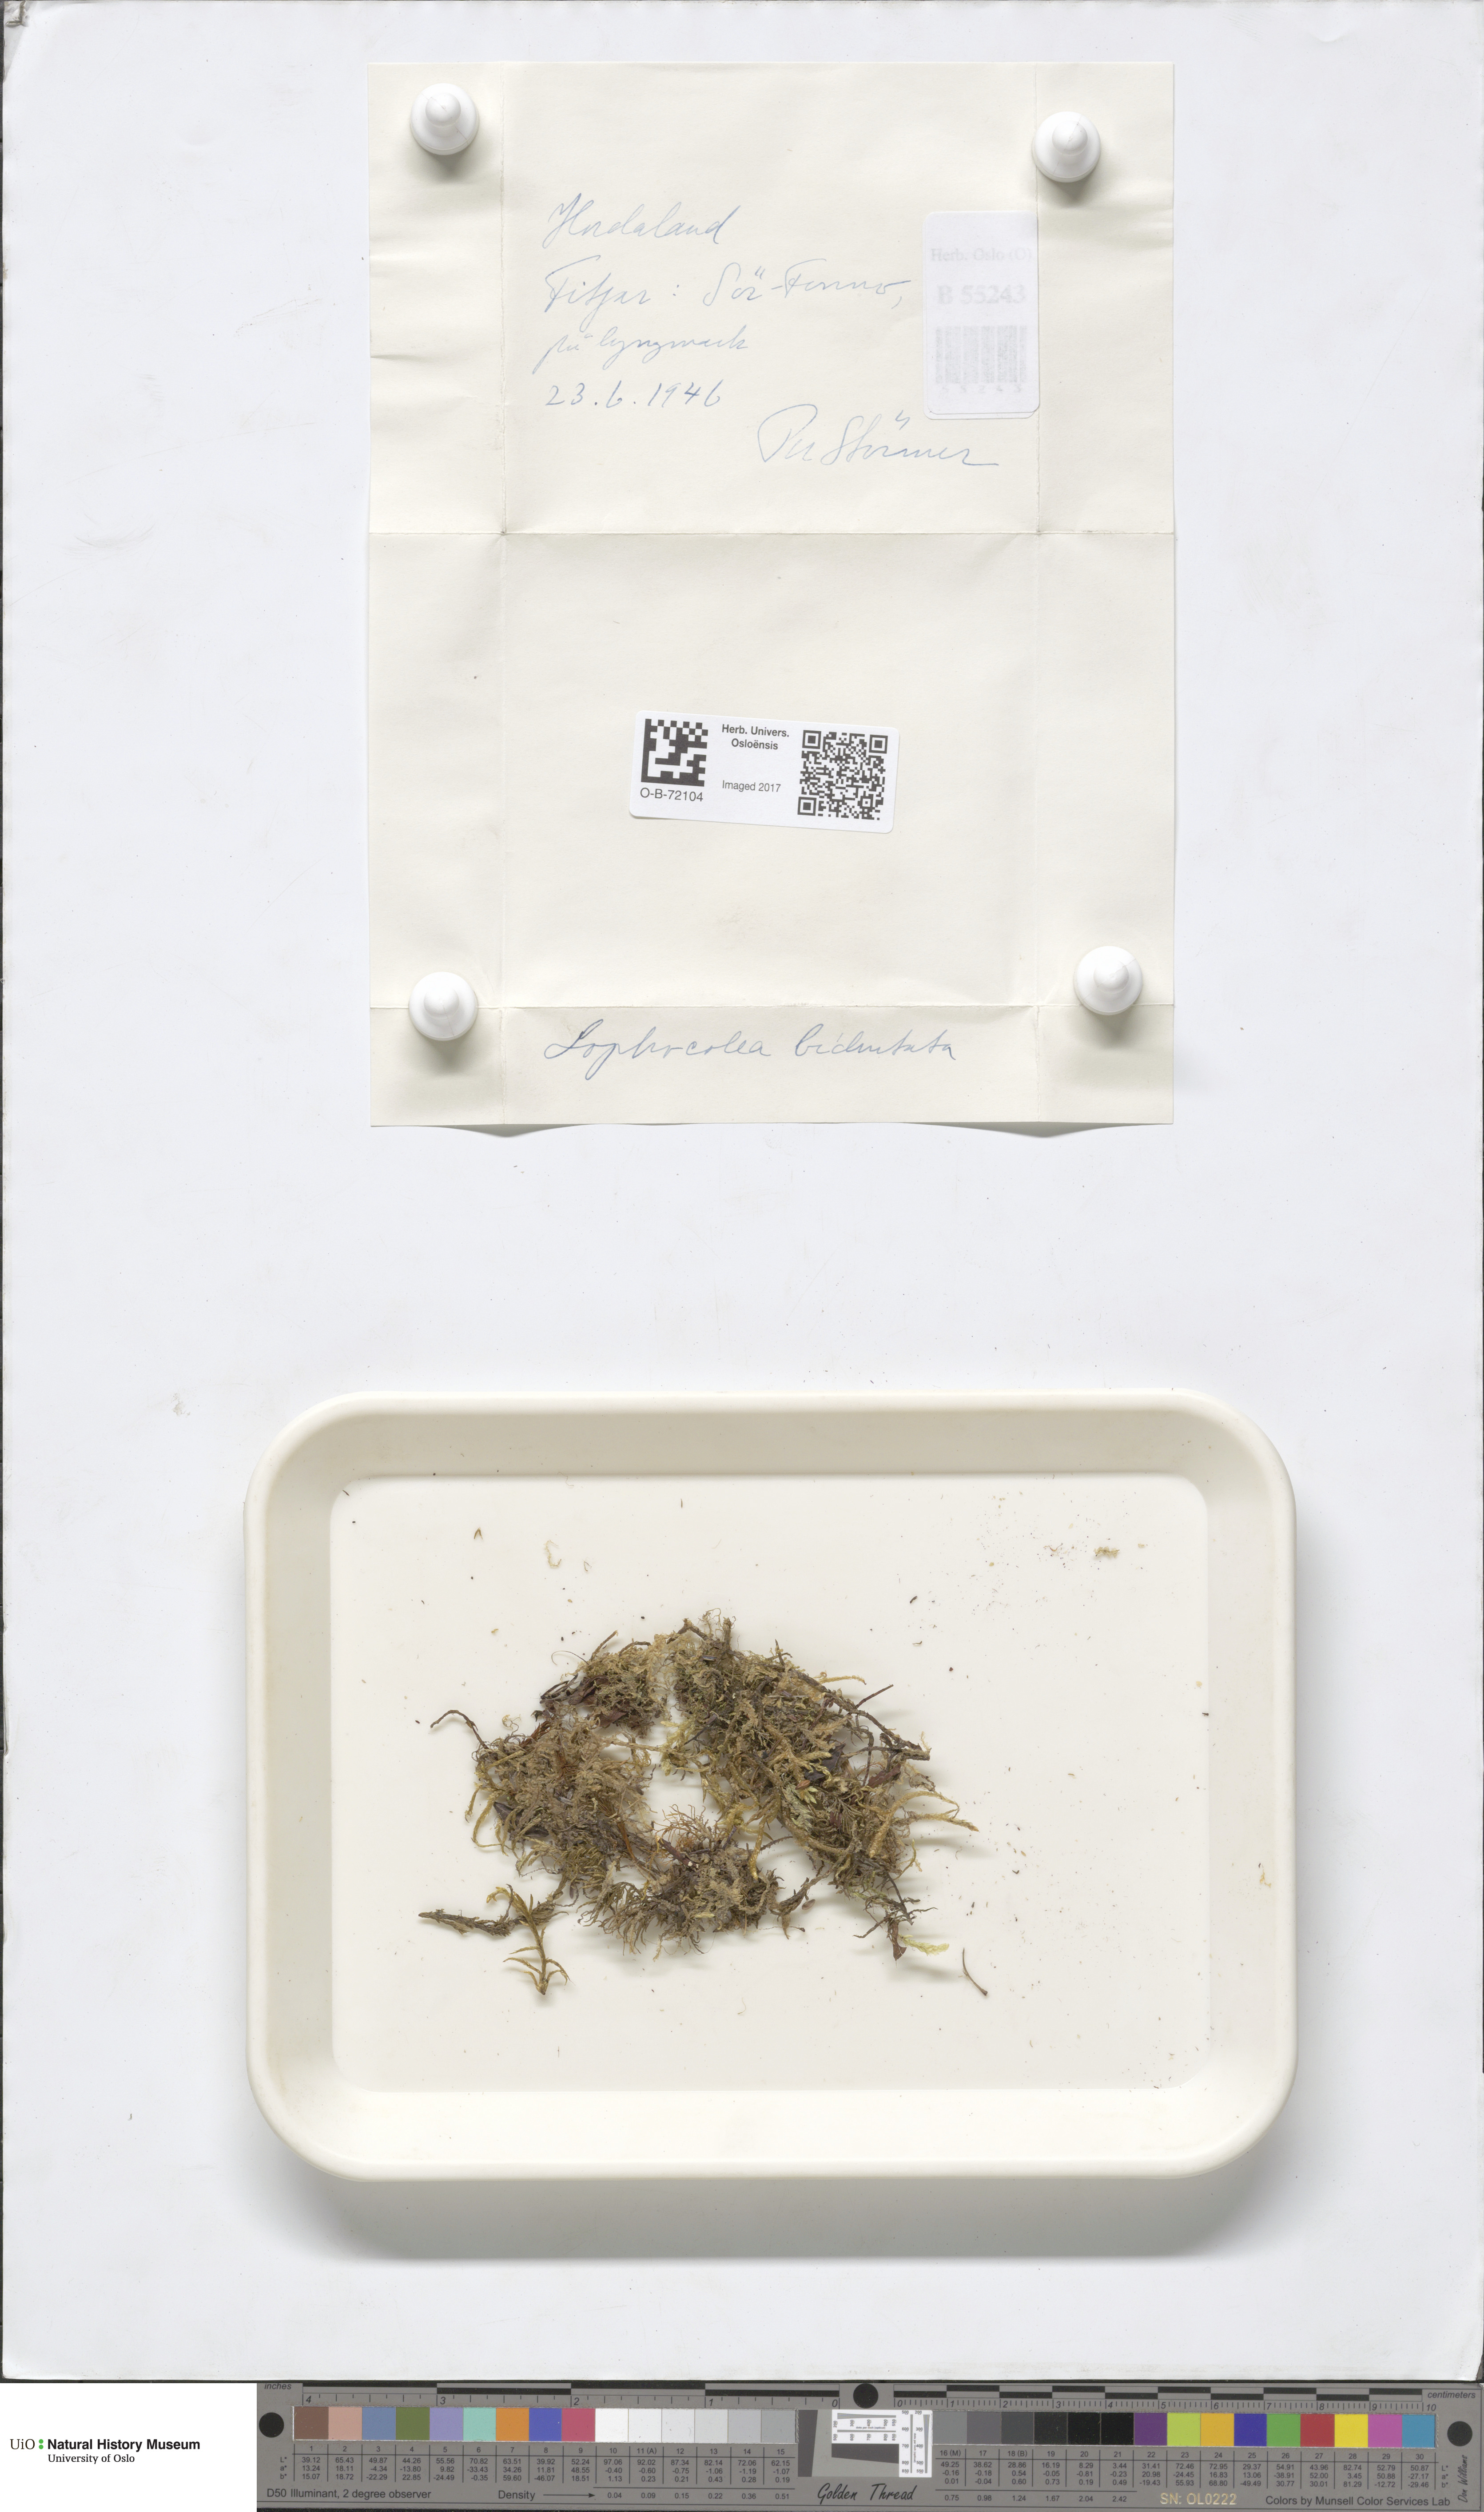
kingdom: Plantae
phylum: Marchantiophyta
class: Jungermanniopsida
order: Jungermanniales
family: Lophocoleaceae
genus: Chiloscyphus
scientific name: Chiloscyphus polyanthos
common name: Square-leaved crestwort
